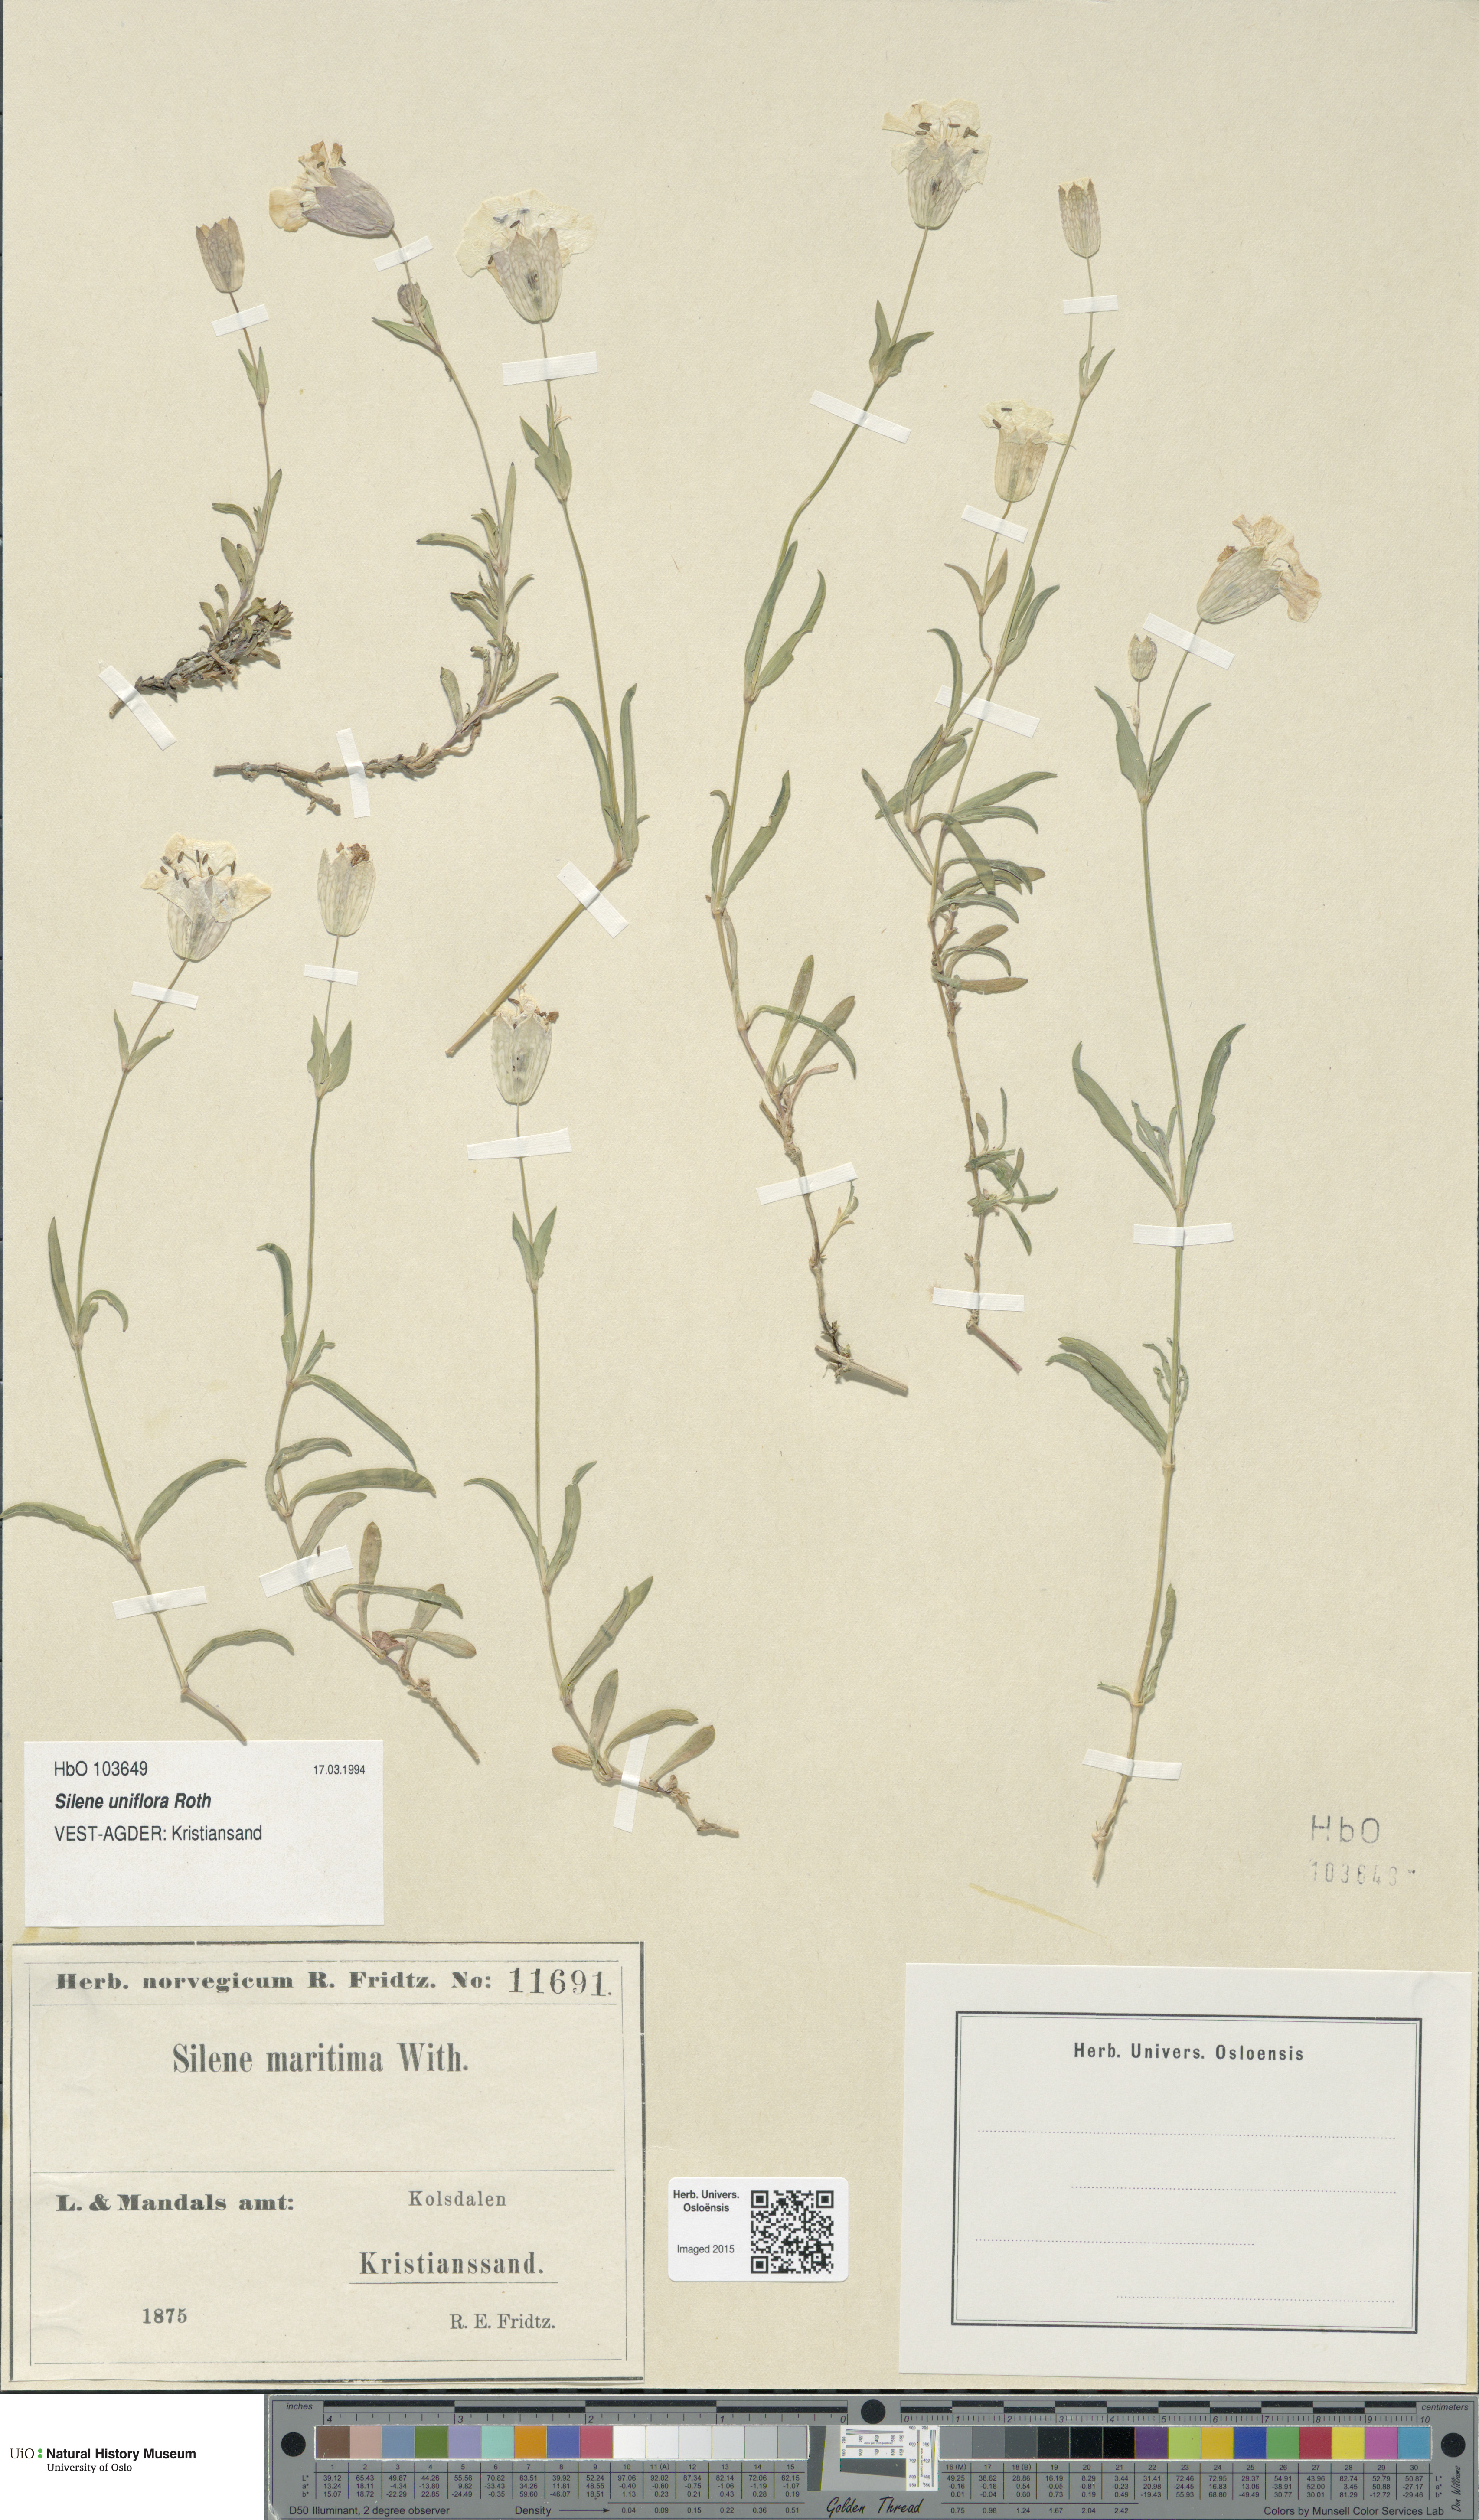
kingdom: Plantae
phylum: Tracheophyta
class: Magnoliopsida
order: Caryophyllales
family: Caryophyllaceae
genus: Silene
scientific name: Silene uniflora
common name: Sea campion
